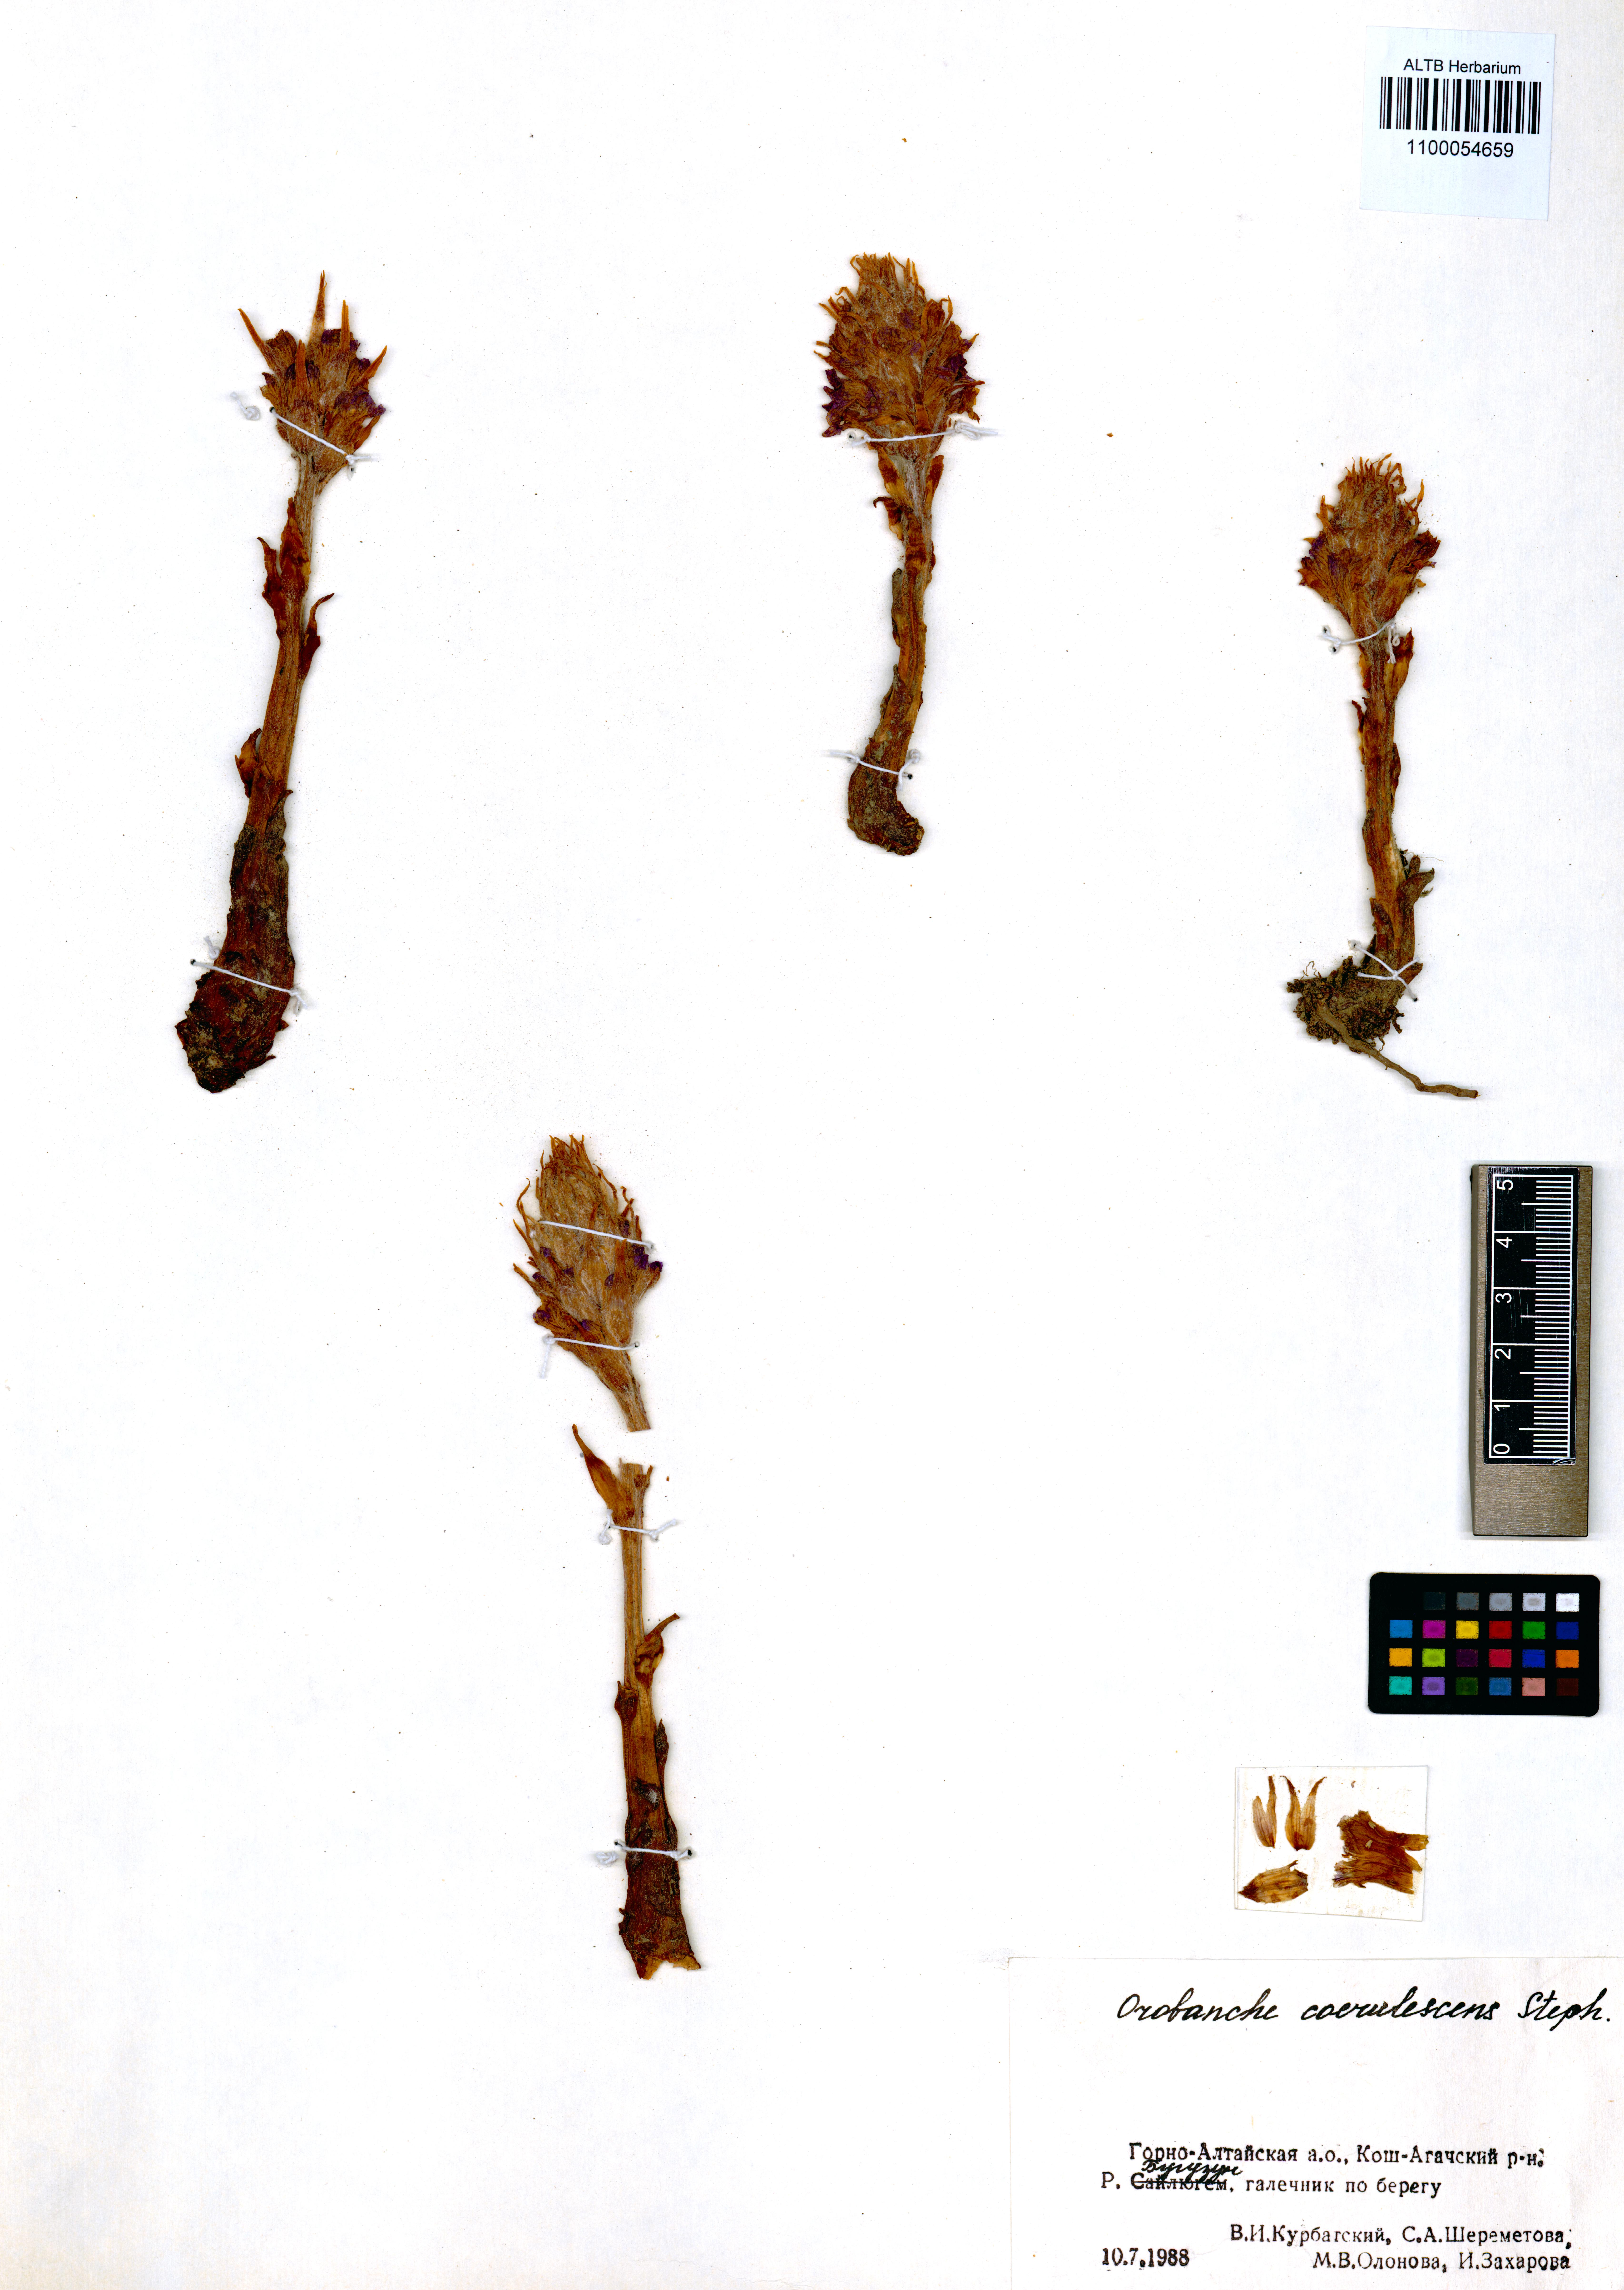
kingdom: Plantae
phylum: Tracheophyta
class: Magnoliopsida
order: Lamiales
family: Orobanchaceae
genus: Orobanche
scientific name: Orobanche coerulescens
